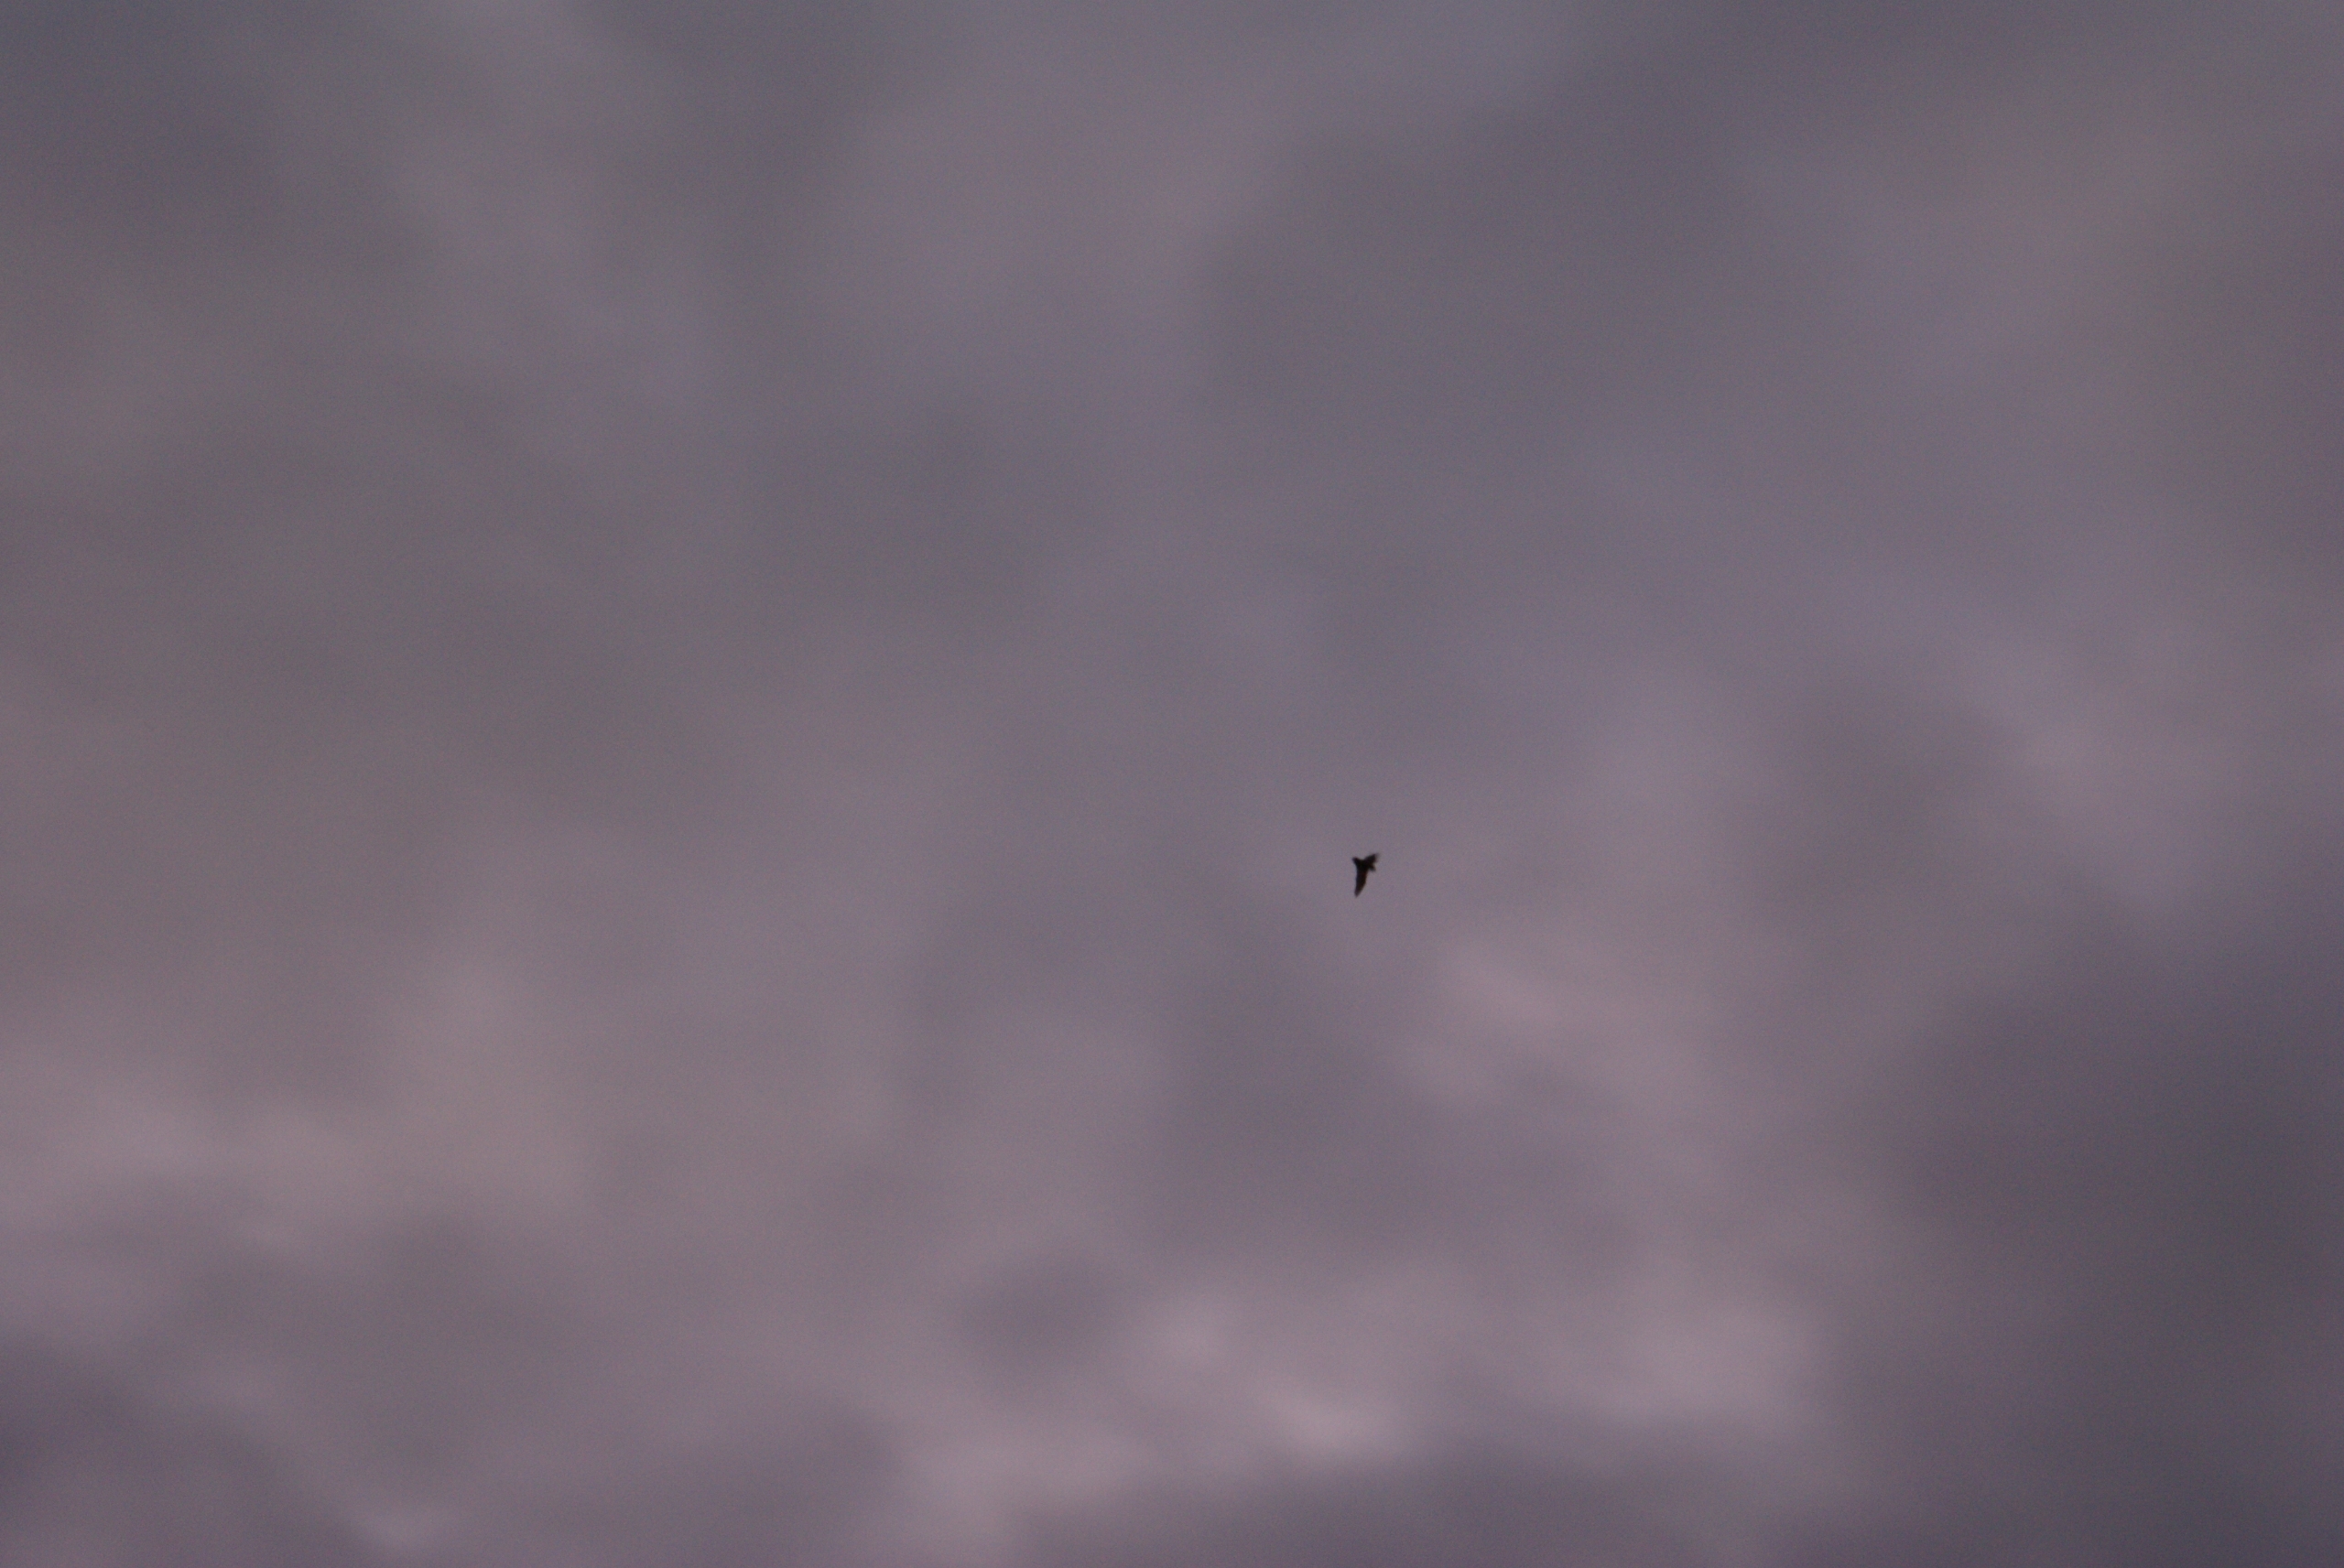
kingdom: Animalia
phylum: Chordata
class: Mammalia
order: Chiroptera
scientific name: Chiroptera
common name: Flagermus
